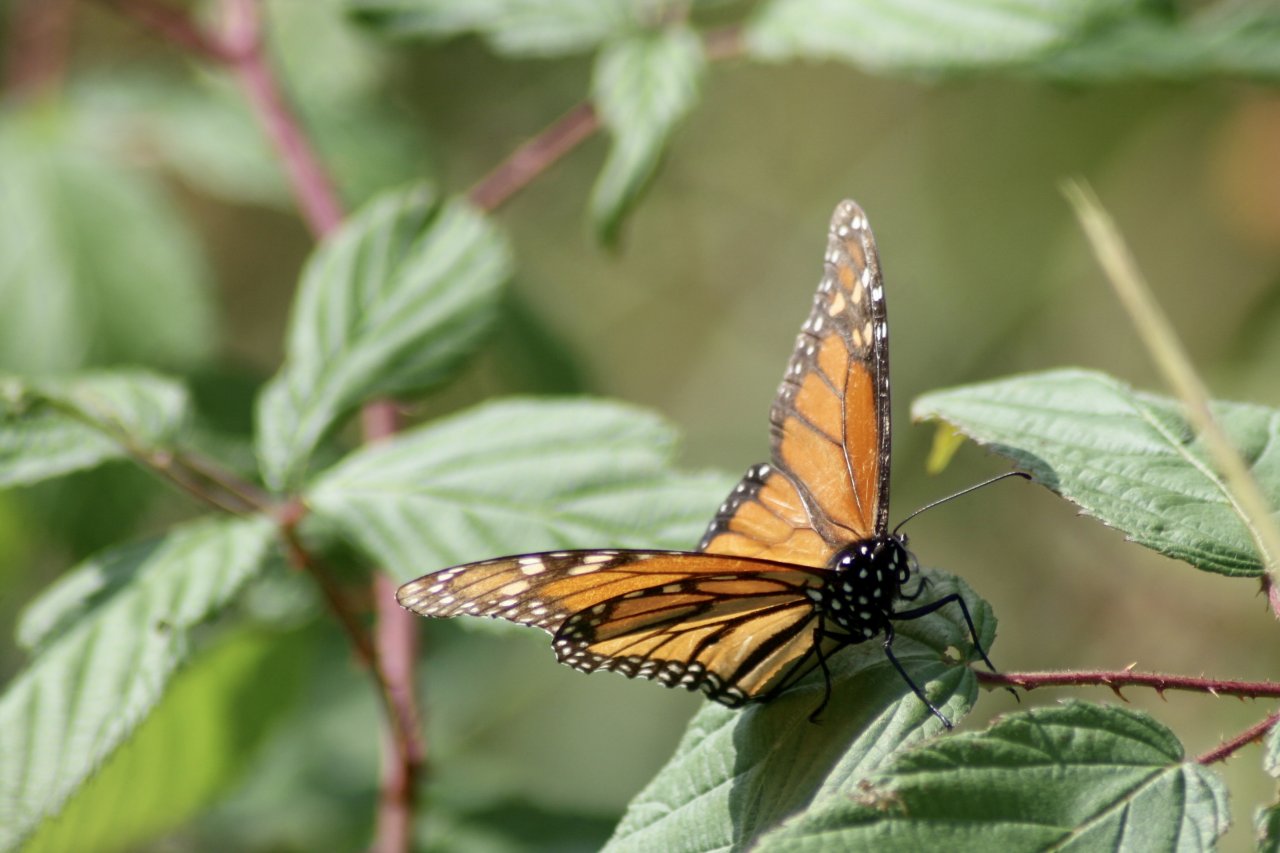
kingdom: Animalia
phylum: Arthropoda
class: Insecta
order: Lepidoptera
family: Nymphalidae
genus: Danaus
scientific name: Danaus plexippus
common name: Monarch
